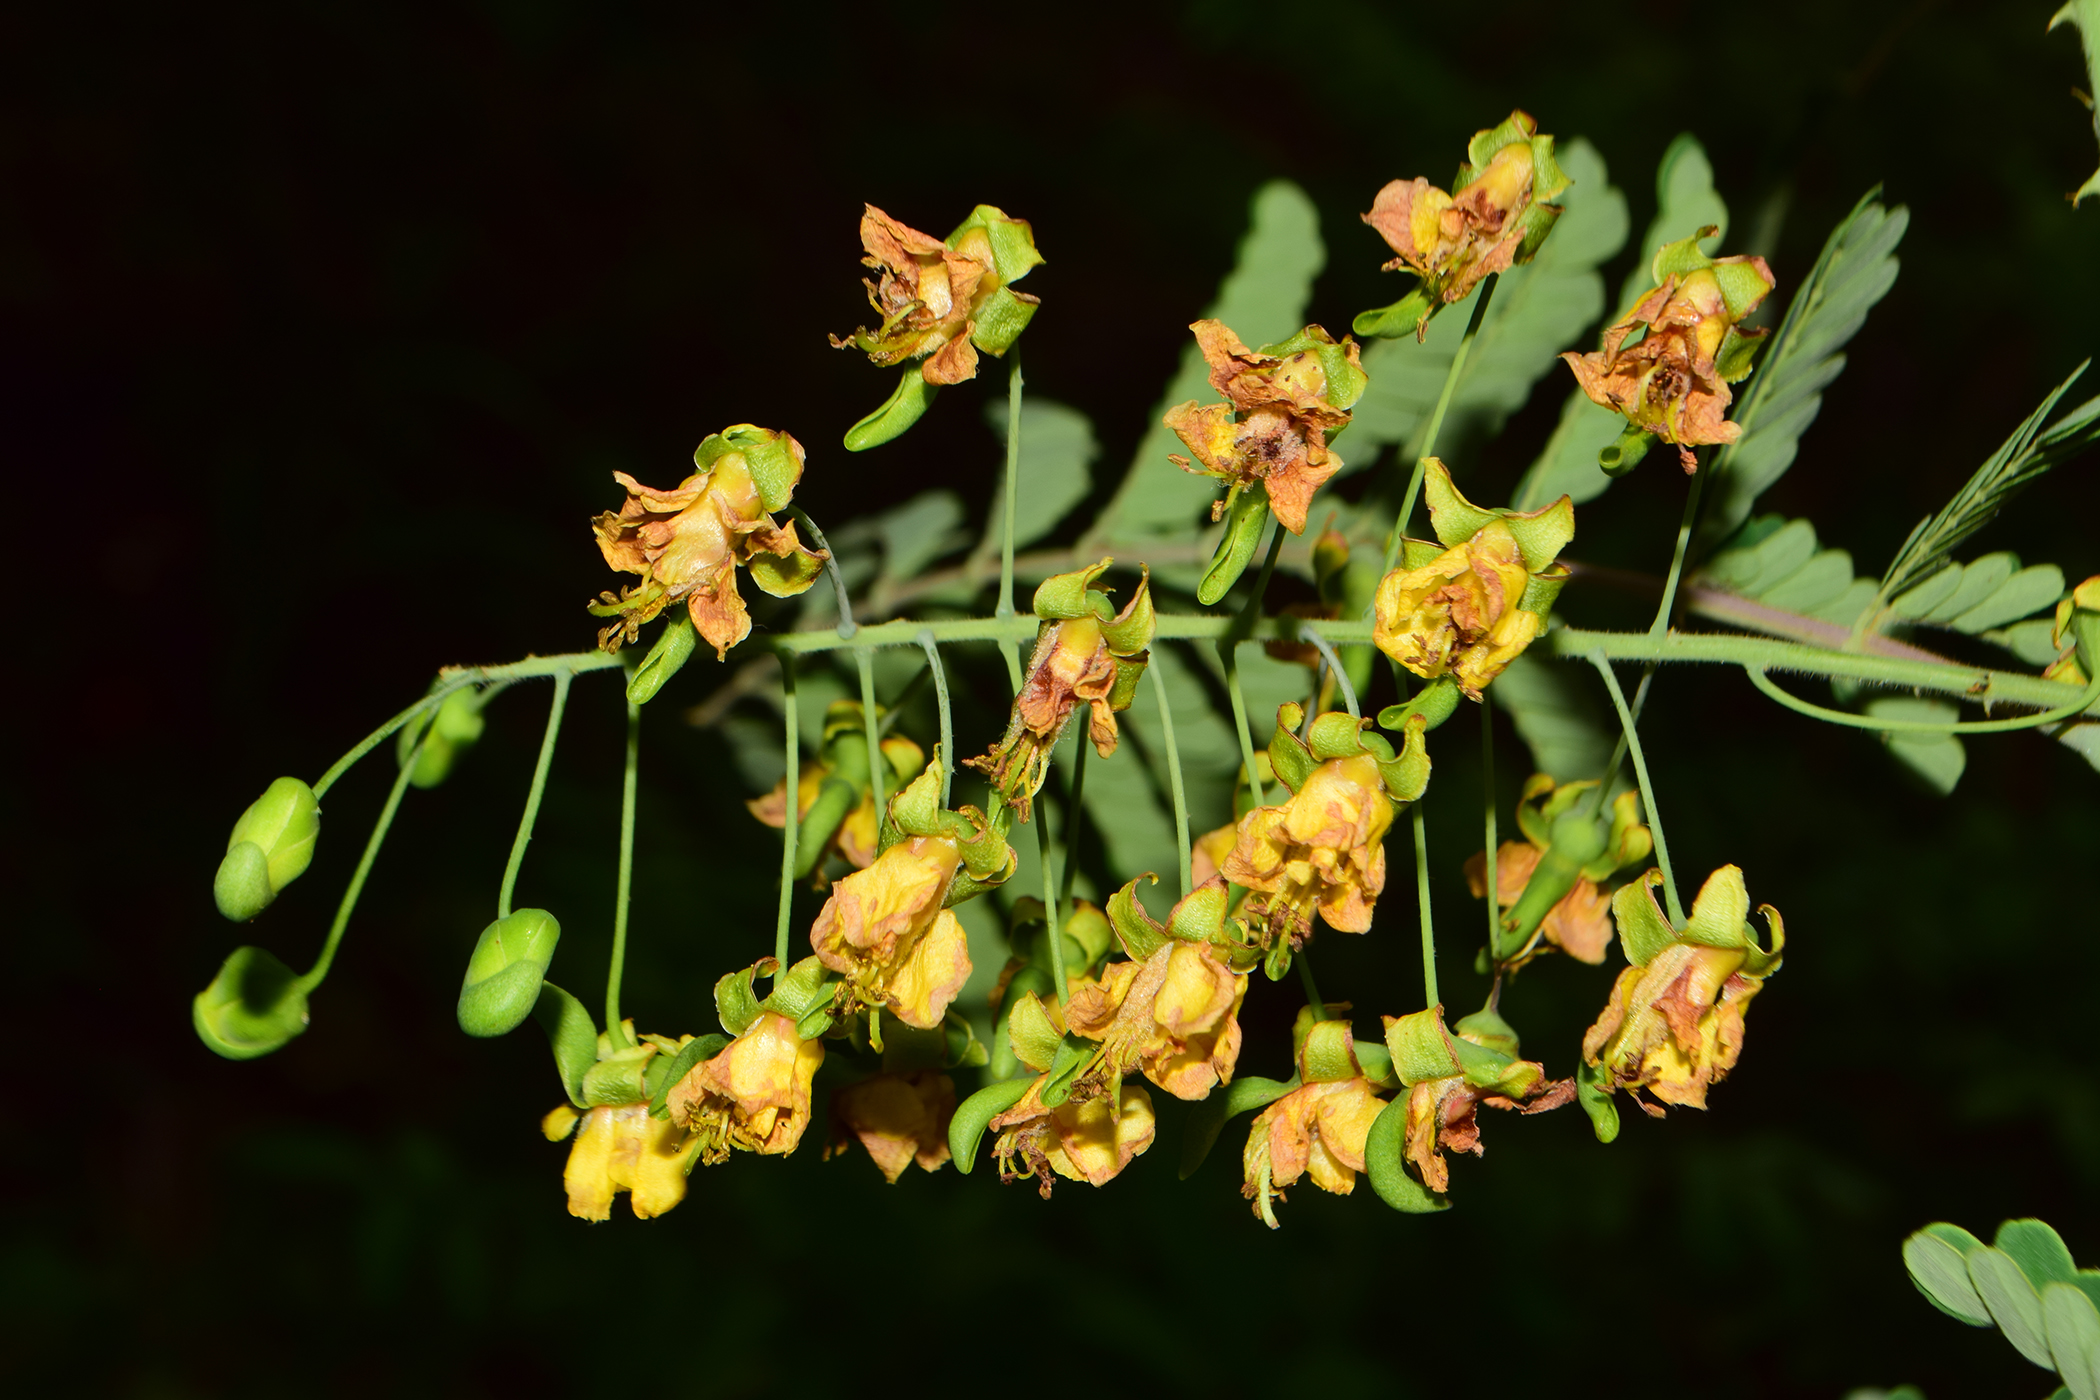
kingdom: Plantae
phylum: Tracheophyta
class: Magnoliopsida
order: Fabales
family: Fabaceae
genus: Moullava
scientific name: Moullava digyna
